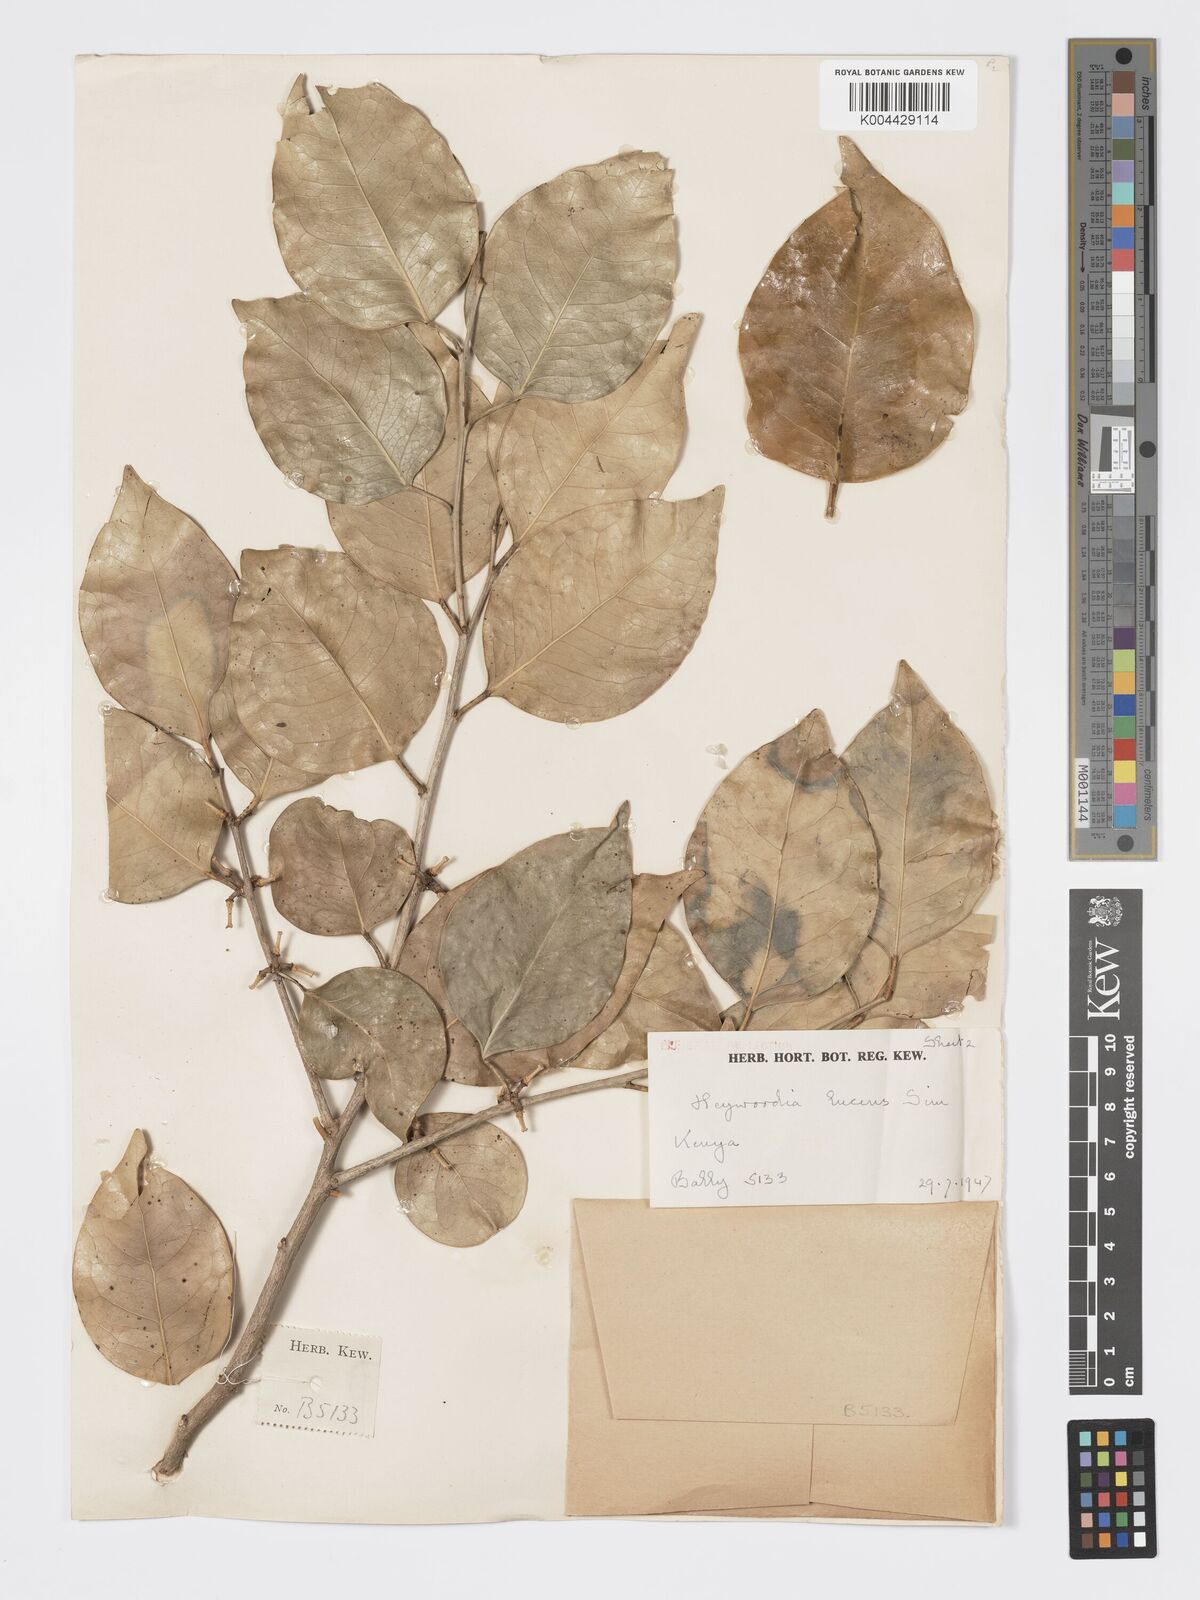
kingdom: Plantae
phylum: Tracheophyta
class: Magnoliopsida
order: Malpighiales
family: Phyllanthaceae
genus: Heywoodia
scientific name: Heywoodia lucens
